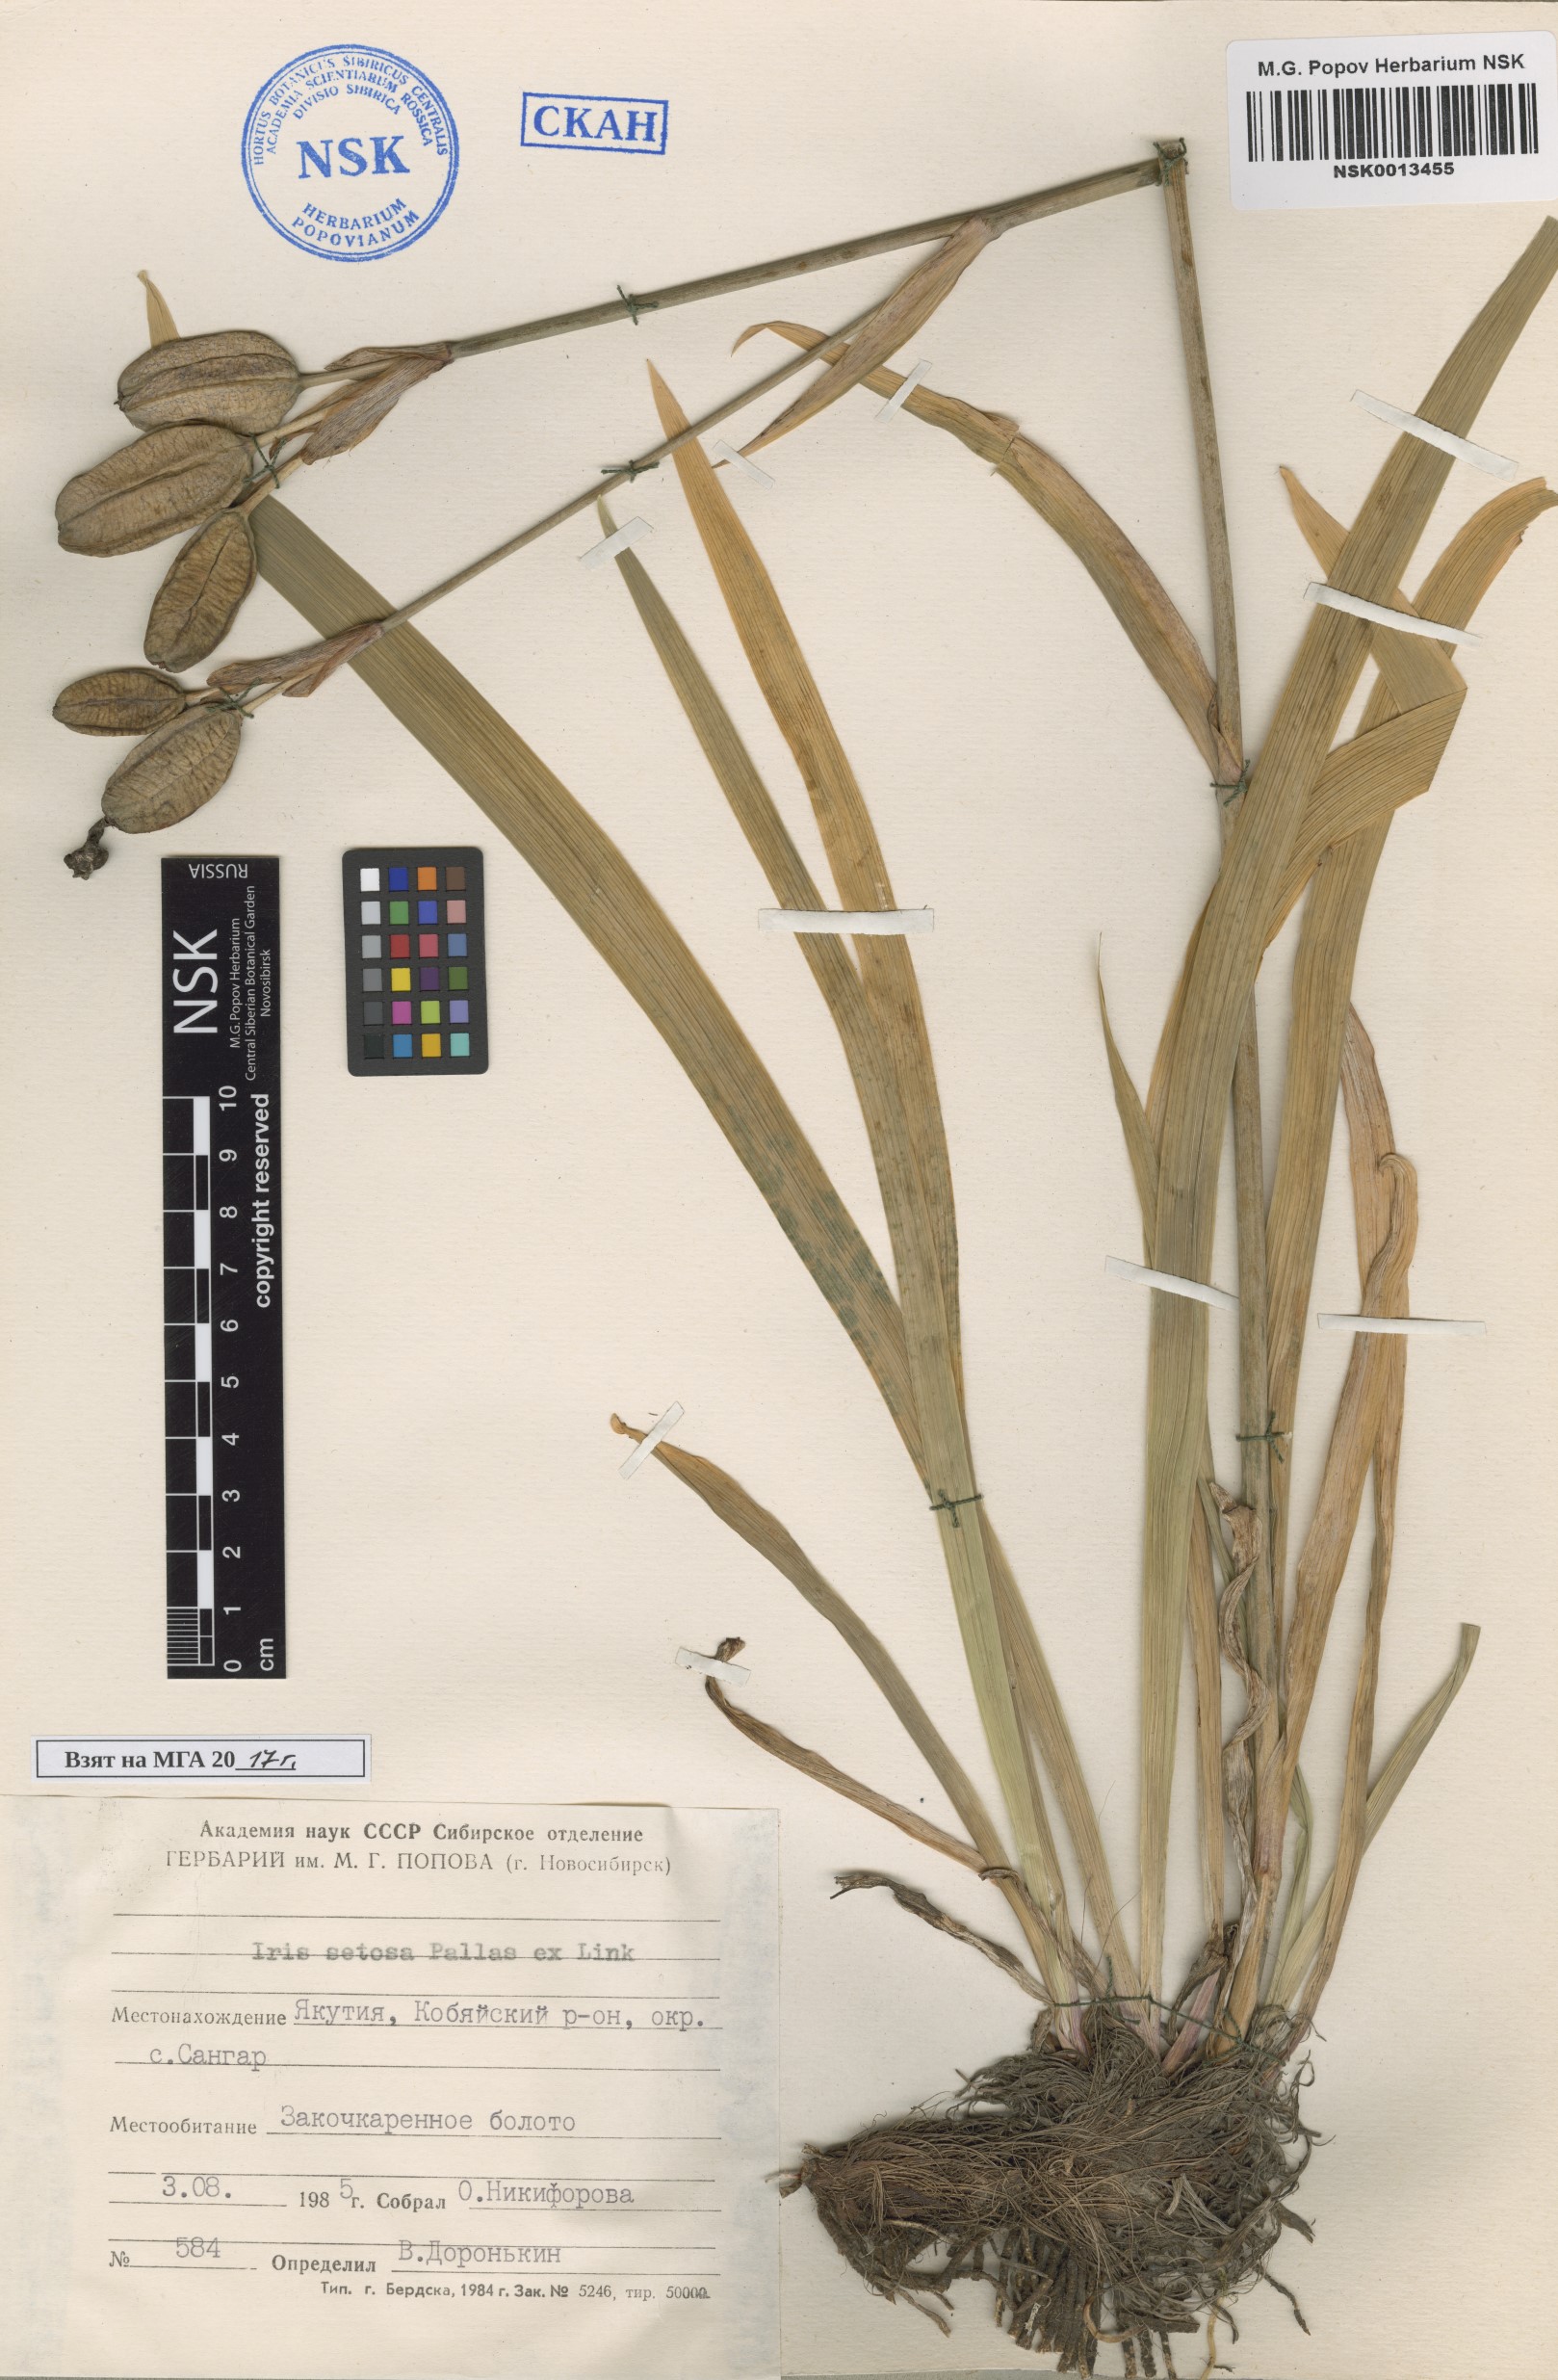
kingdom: Plantae
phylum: Tracheophyta
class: Liliopsida
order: Asparagales
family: Iridaceae
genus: Iris
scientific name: Iris setosa
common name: Arctic blue flag
